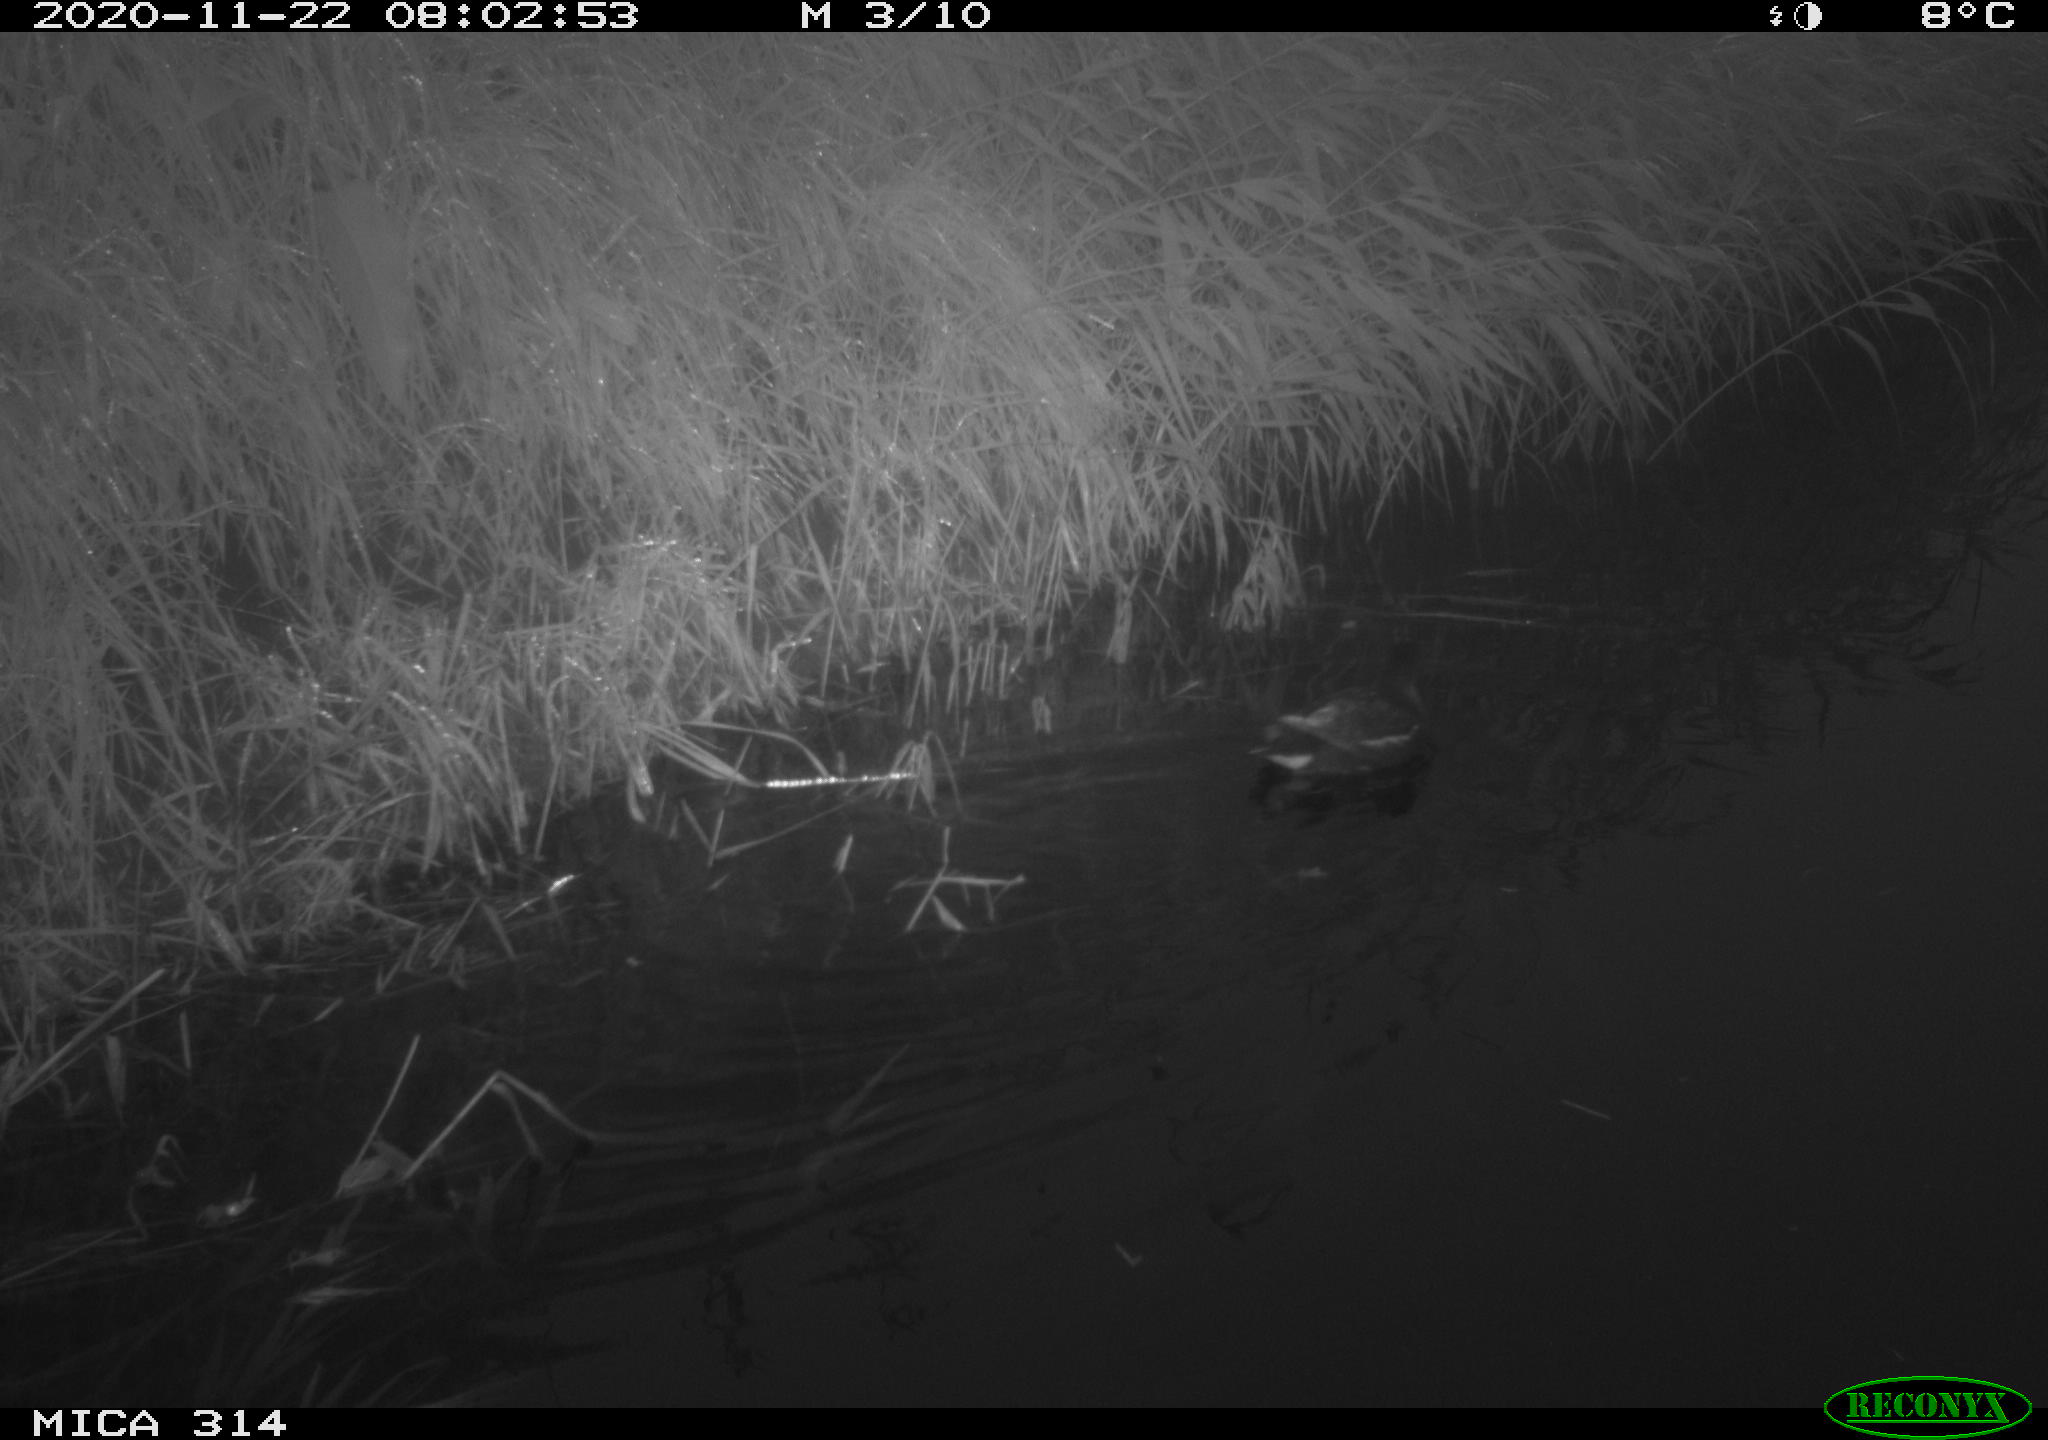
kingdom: Animalia
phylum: Chordata
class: Aves
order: Gruiformes
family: Rallidae
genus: Gallinula
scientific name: Gallinula chloropus
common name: Common moorhen
